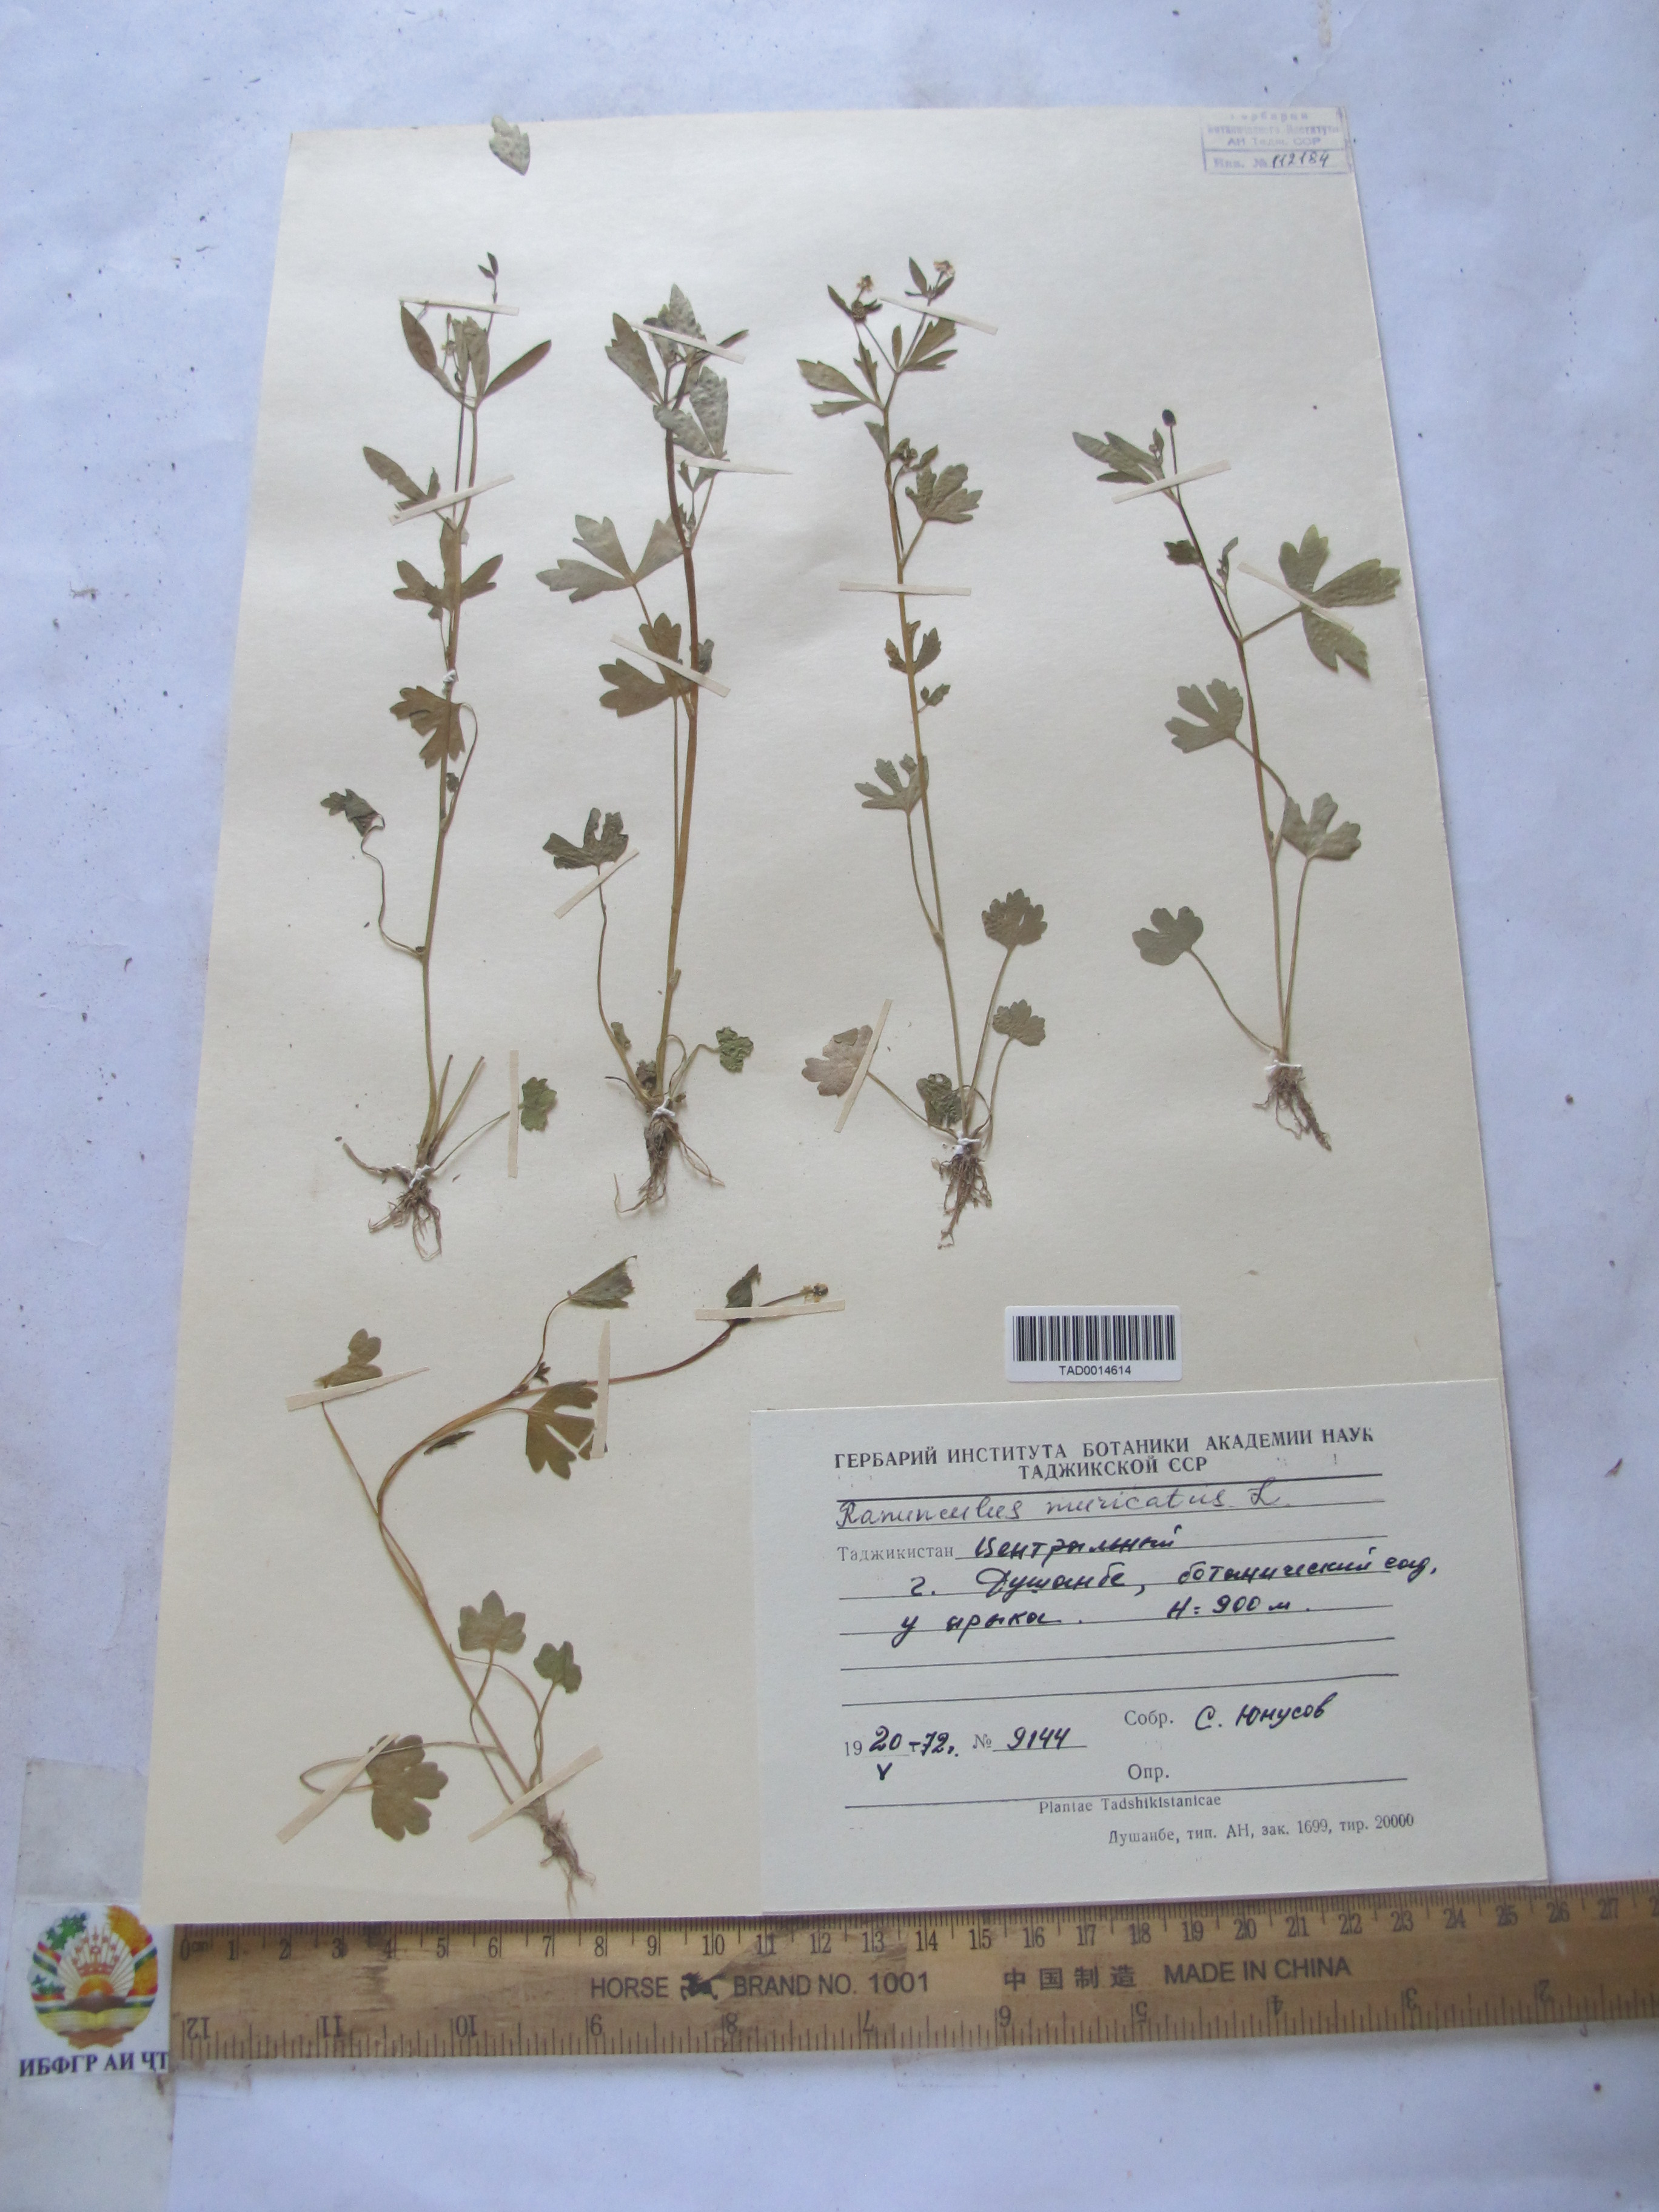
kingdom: Plantae
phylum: Tracheophyta
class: Magnoliopsida
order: Ranunculales
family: Ranunculaceae
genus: Ranunculus
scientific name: Ranunculus muricatus
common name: Rough-fruited buttercup
